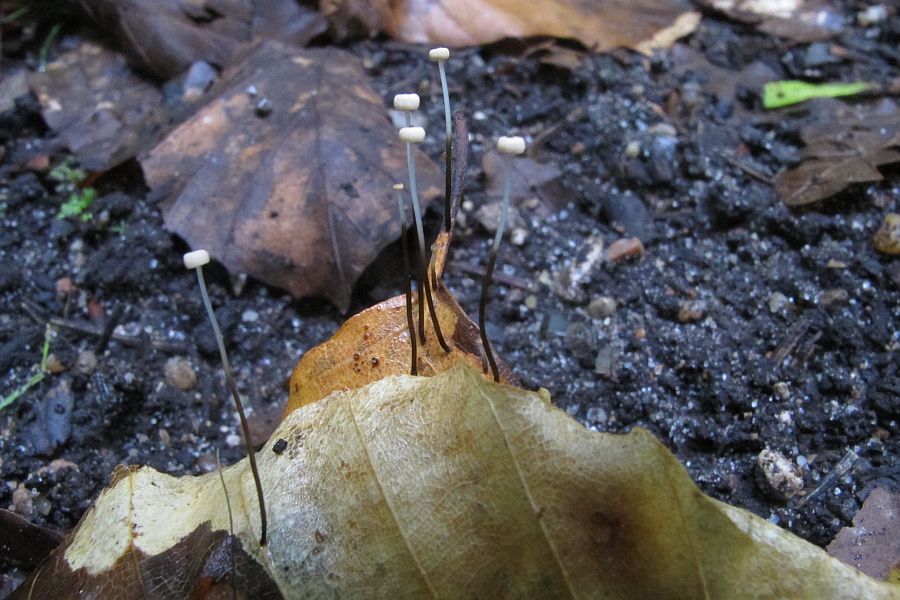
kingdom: Fungi
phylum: Basidiomycota
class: Agaricomycetes
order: Agaricales
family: Marasmiaceae
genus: Marasmius
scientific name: Marasmius bulliardii
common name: furet bruskhat
